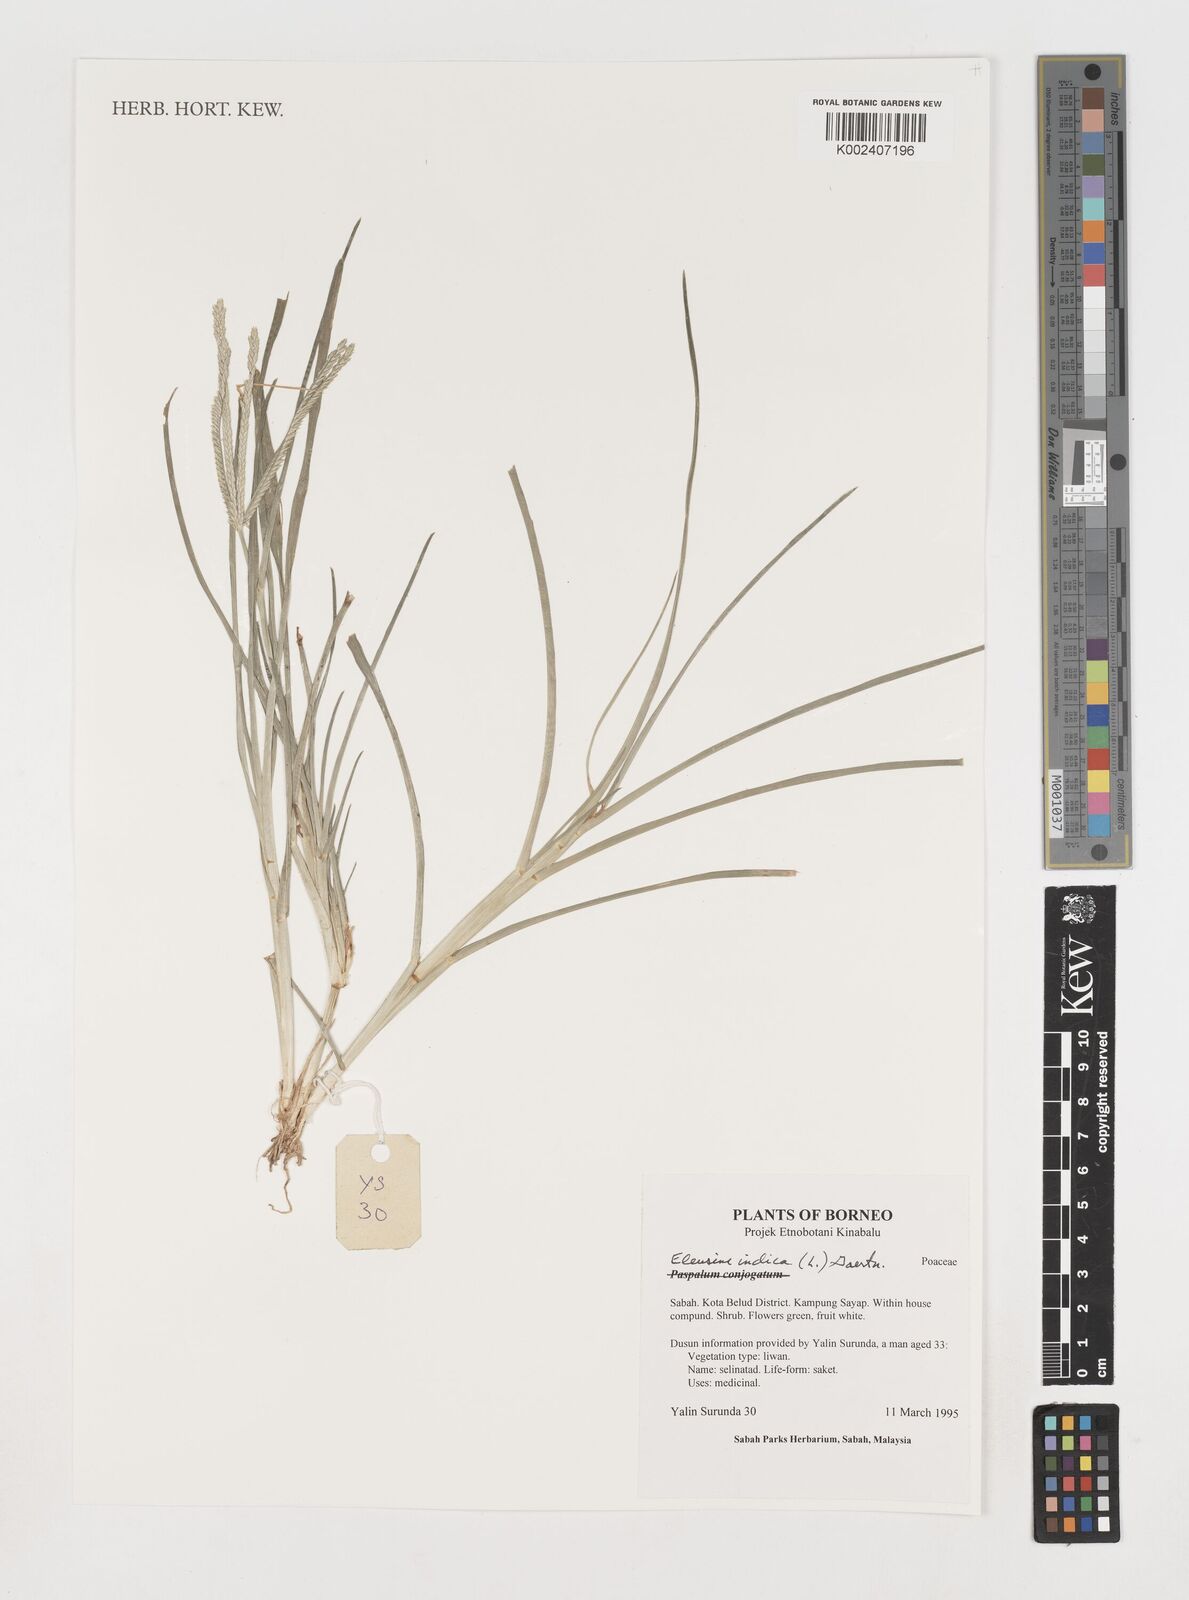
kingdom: Plantae
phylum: Tracheophyta
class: Liliopsida
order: Poales
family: Poaceae
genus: Eleusine
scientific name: Eleusine indica
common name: Yard-grass
